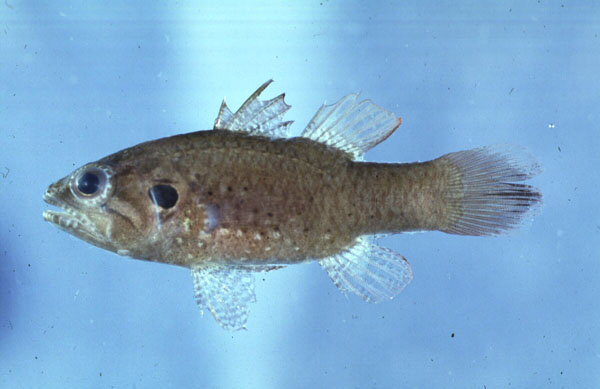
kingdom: Animalia
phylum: Chordata
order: Perciformes
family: Apogonidae
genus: Fowleria
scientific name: Fowleria aurita
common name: Crosseyed cardinalfish
